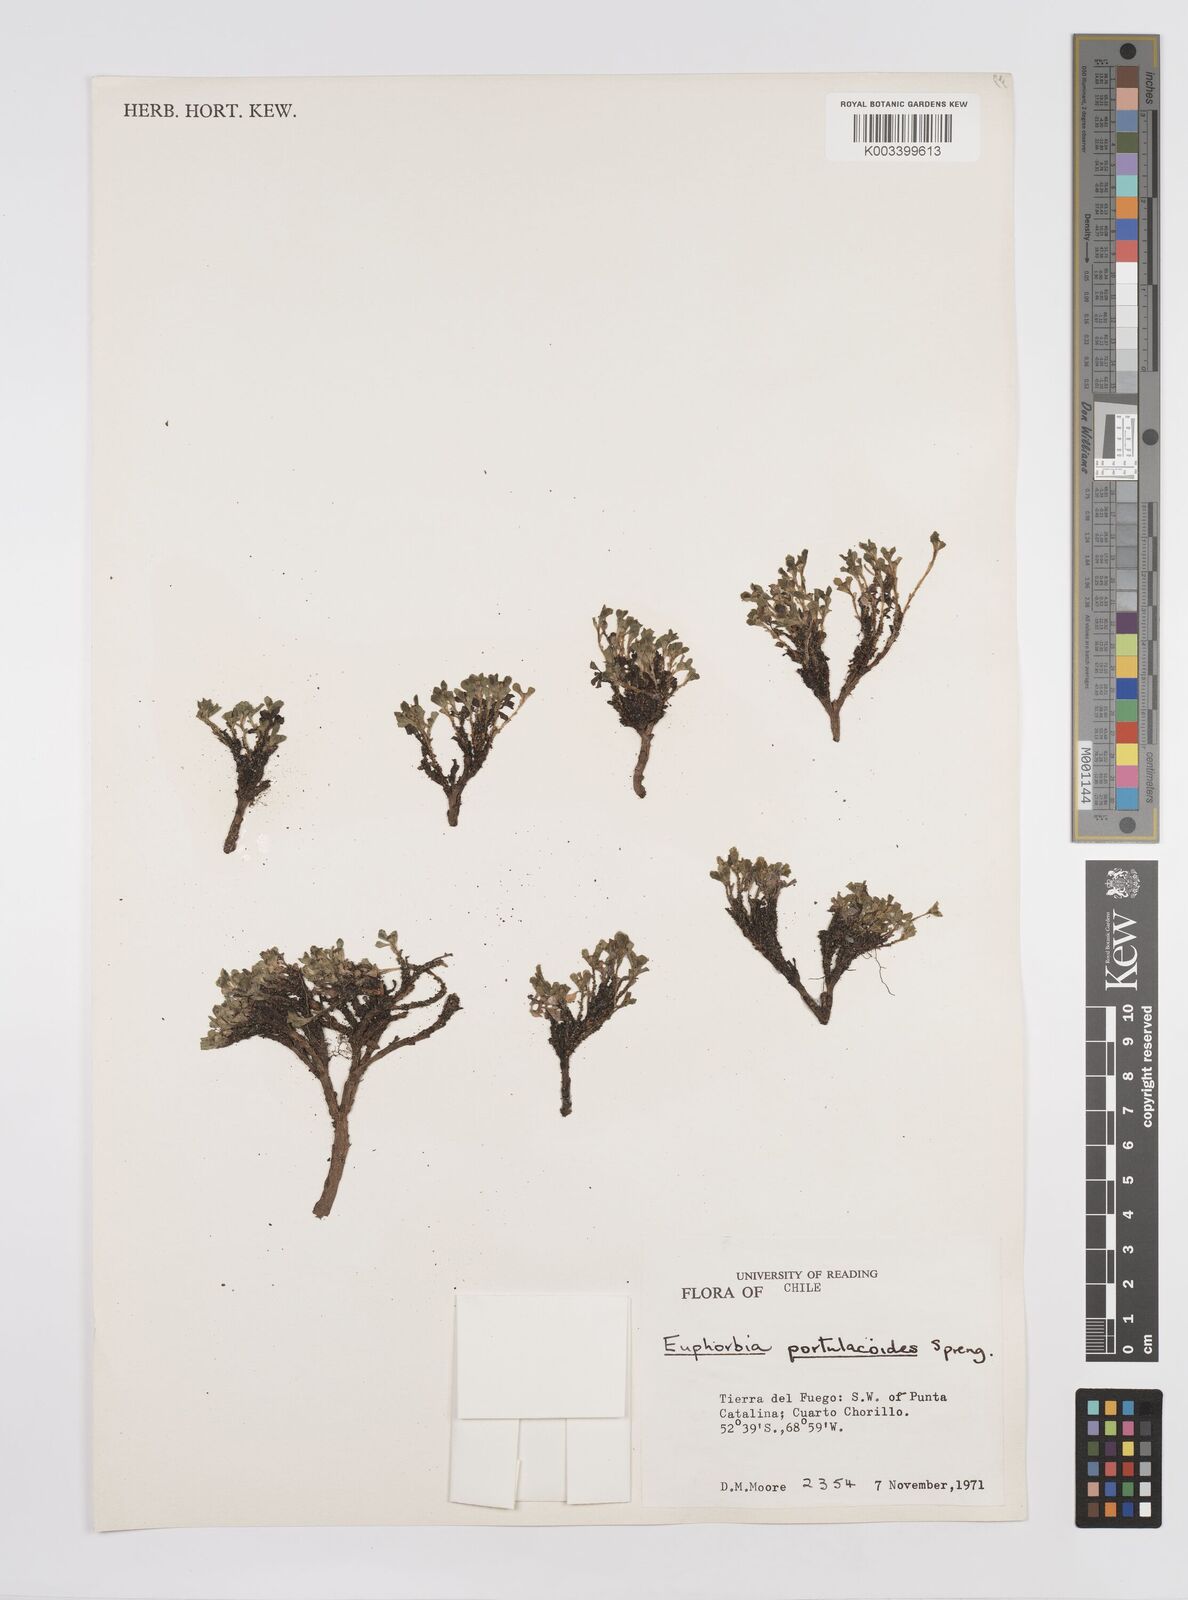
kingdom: Plantae
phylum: Tracheophyta
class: Magnoliopsida
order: Malpighiales
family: Euphorbiaceae
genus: Euphorbia
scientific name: Euphorbia portulacoides
